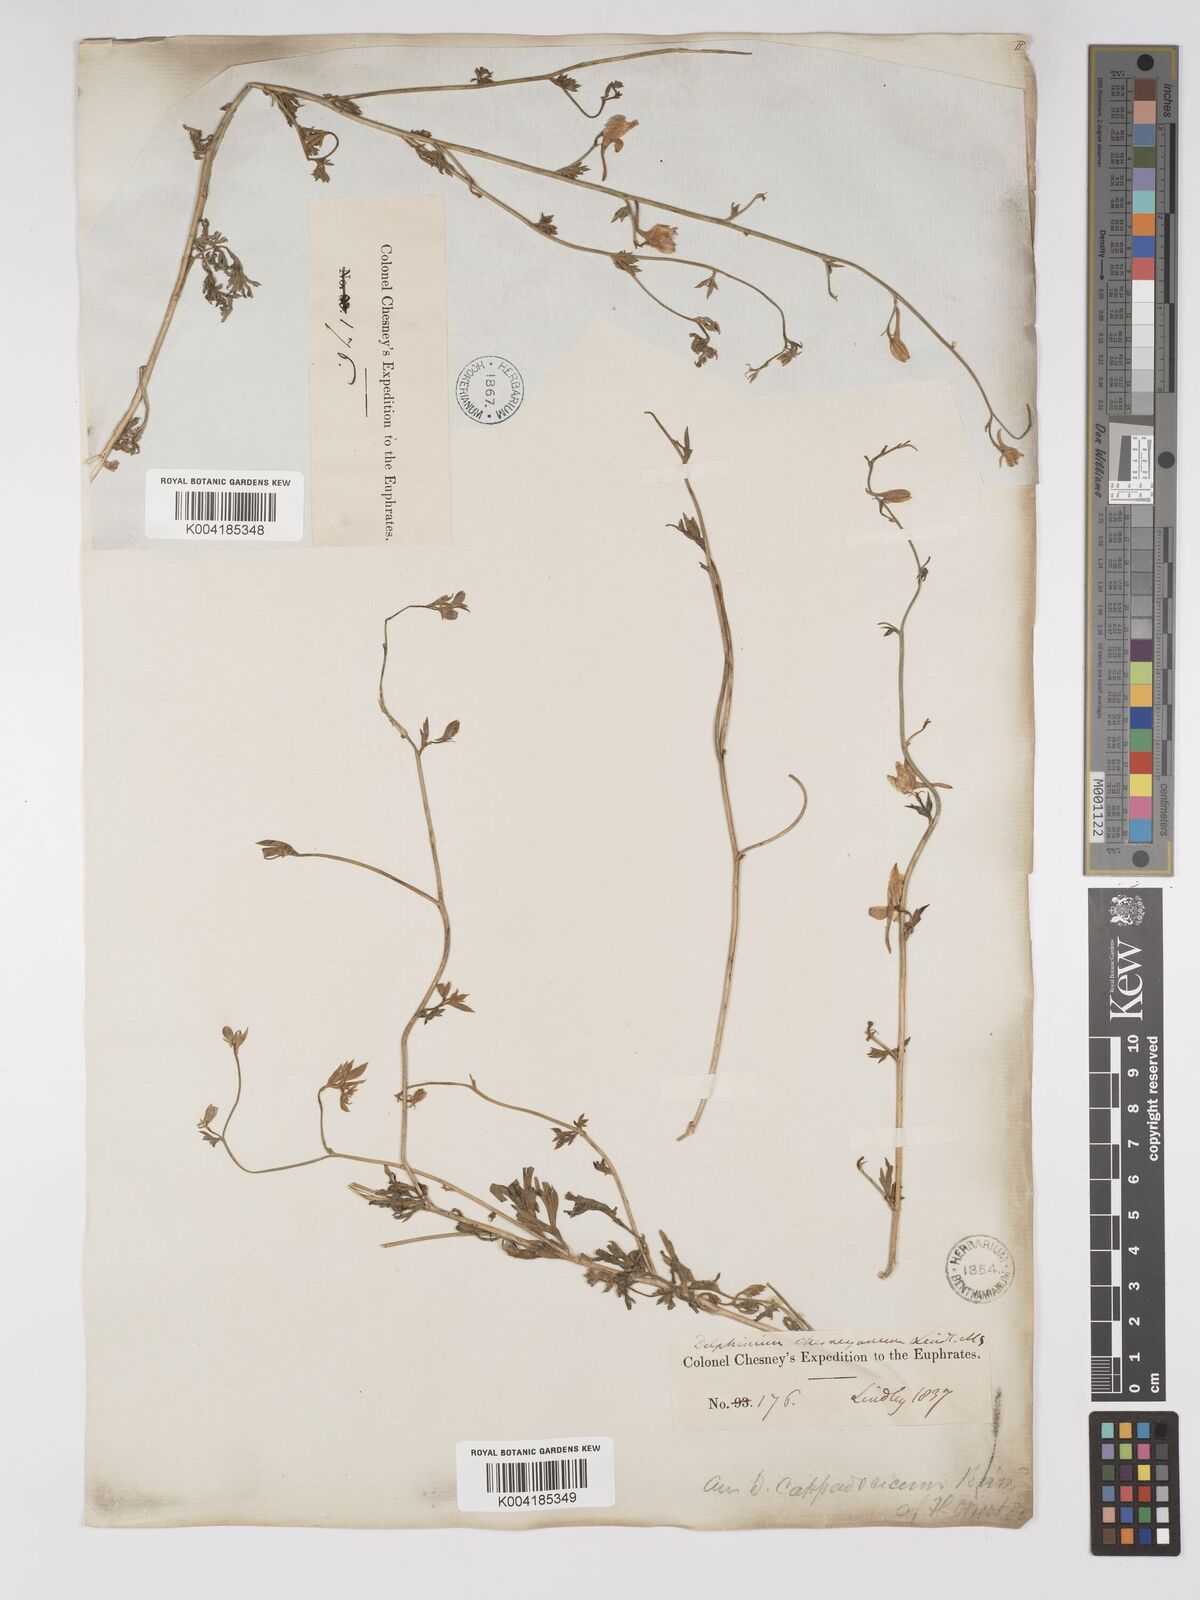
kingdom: Plantae
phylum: Tracheophyta
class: Magnoliopsida
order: Ranunculales
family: Ranunculaceae
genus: Delphinium
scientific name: Delphinium oliverianum
